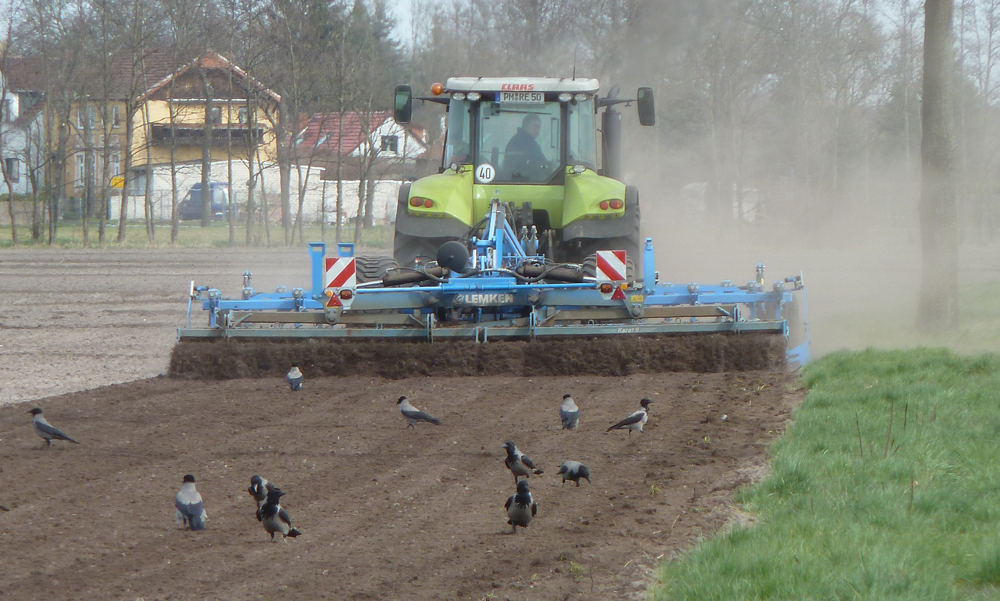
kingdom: Animalia
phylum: Chordata
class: Aves
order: Passeriformes
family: Corvidae
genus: Corvus
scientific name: Corvus cornix
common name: Hooded crow
